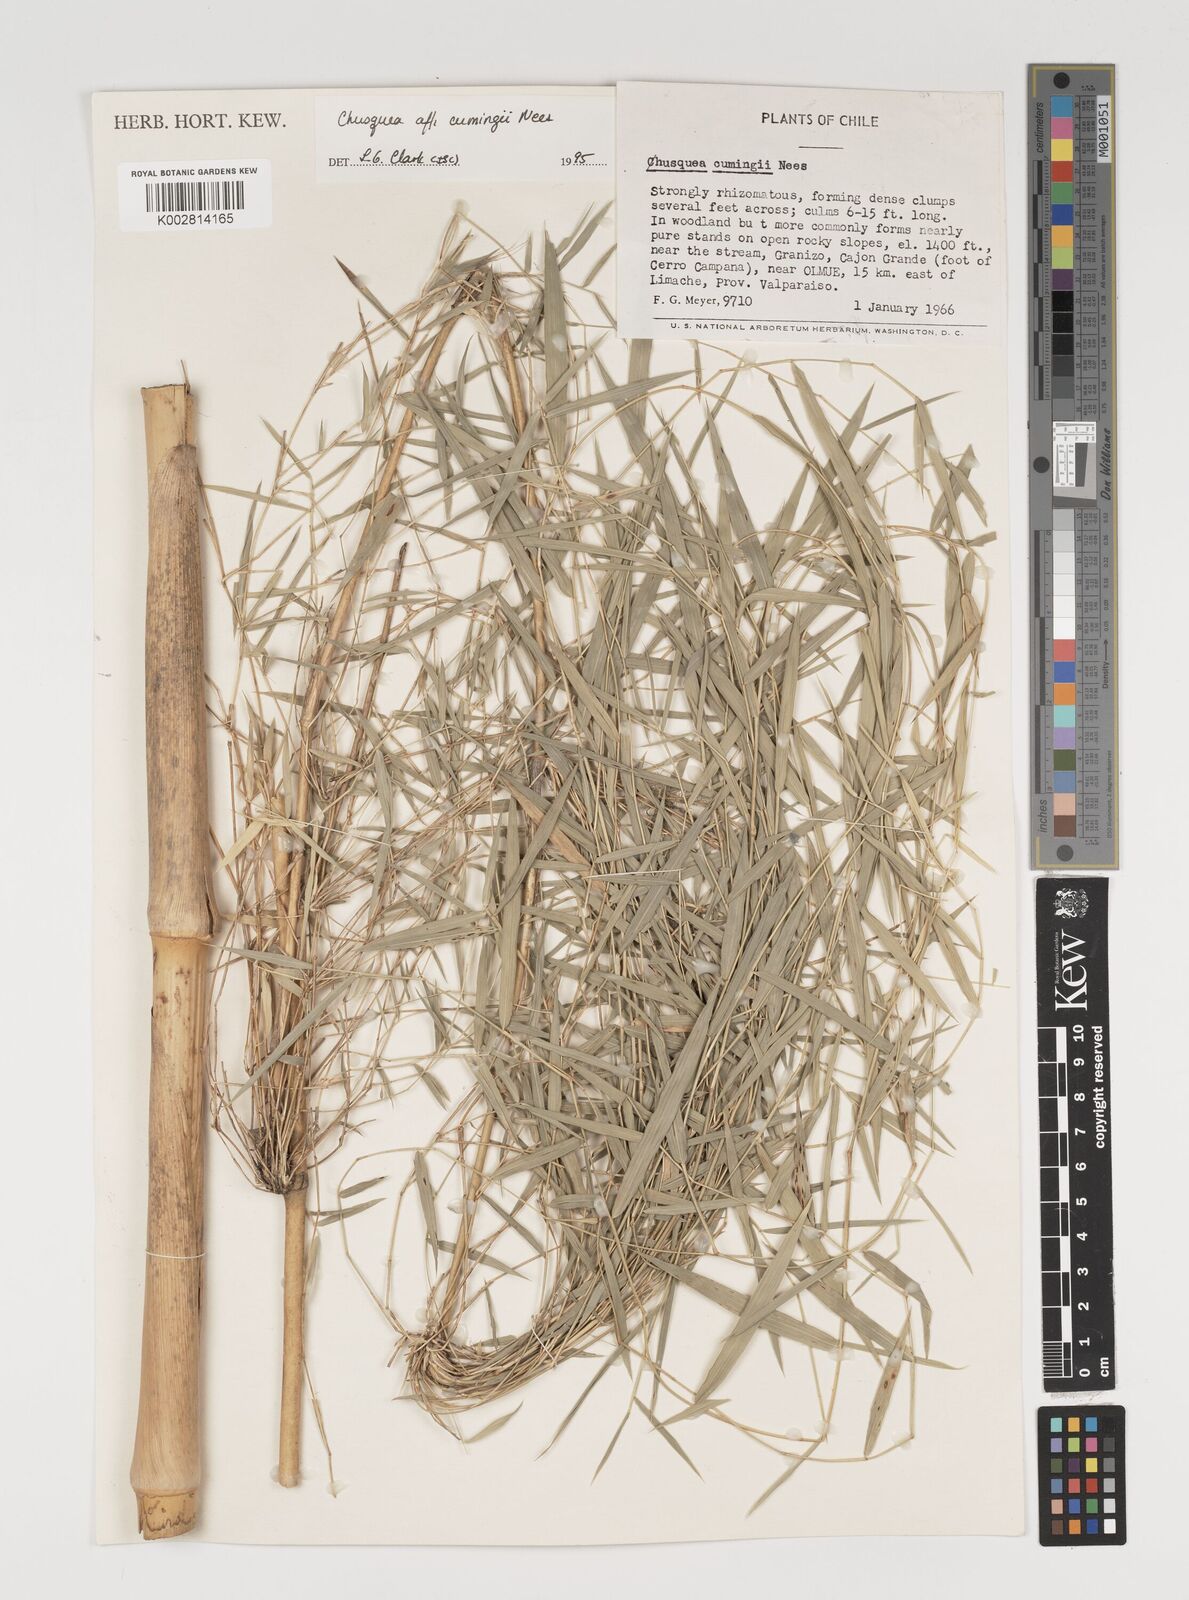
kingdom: Plantae
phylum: Tracheophyta
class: Liliopsida
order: Poales
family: Poaceae
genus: Chusquea
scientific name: Chusquea cumingii
